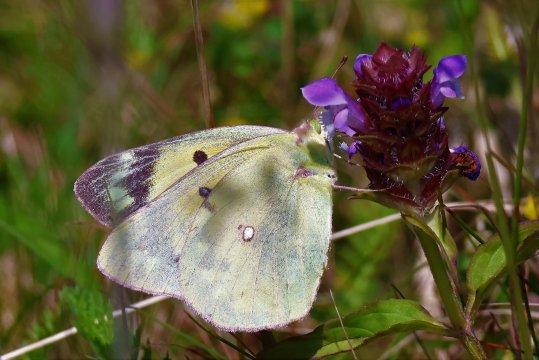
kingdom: Animalia
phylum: Arthropoda
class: Insecta
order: Lepidoptera
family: Pieridae
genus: Colias
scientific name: Colias eurytheme
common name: Orange Sulphur
